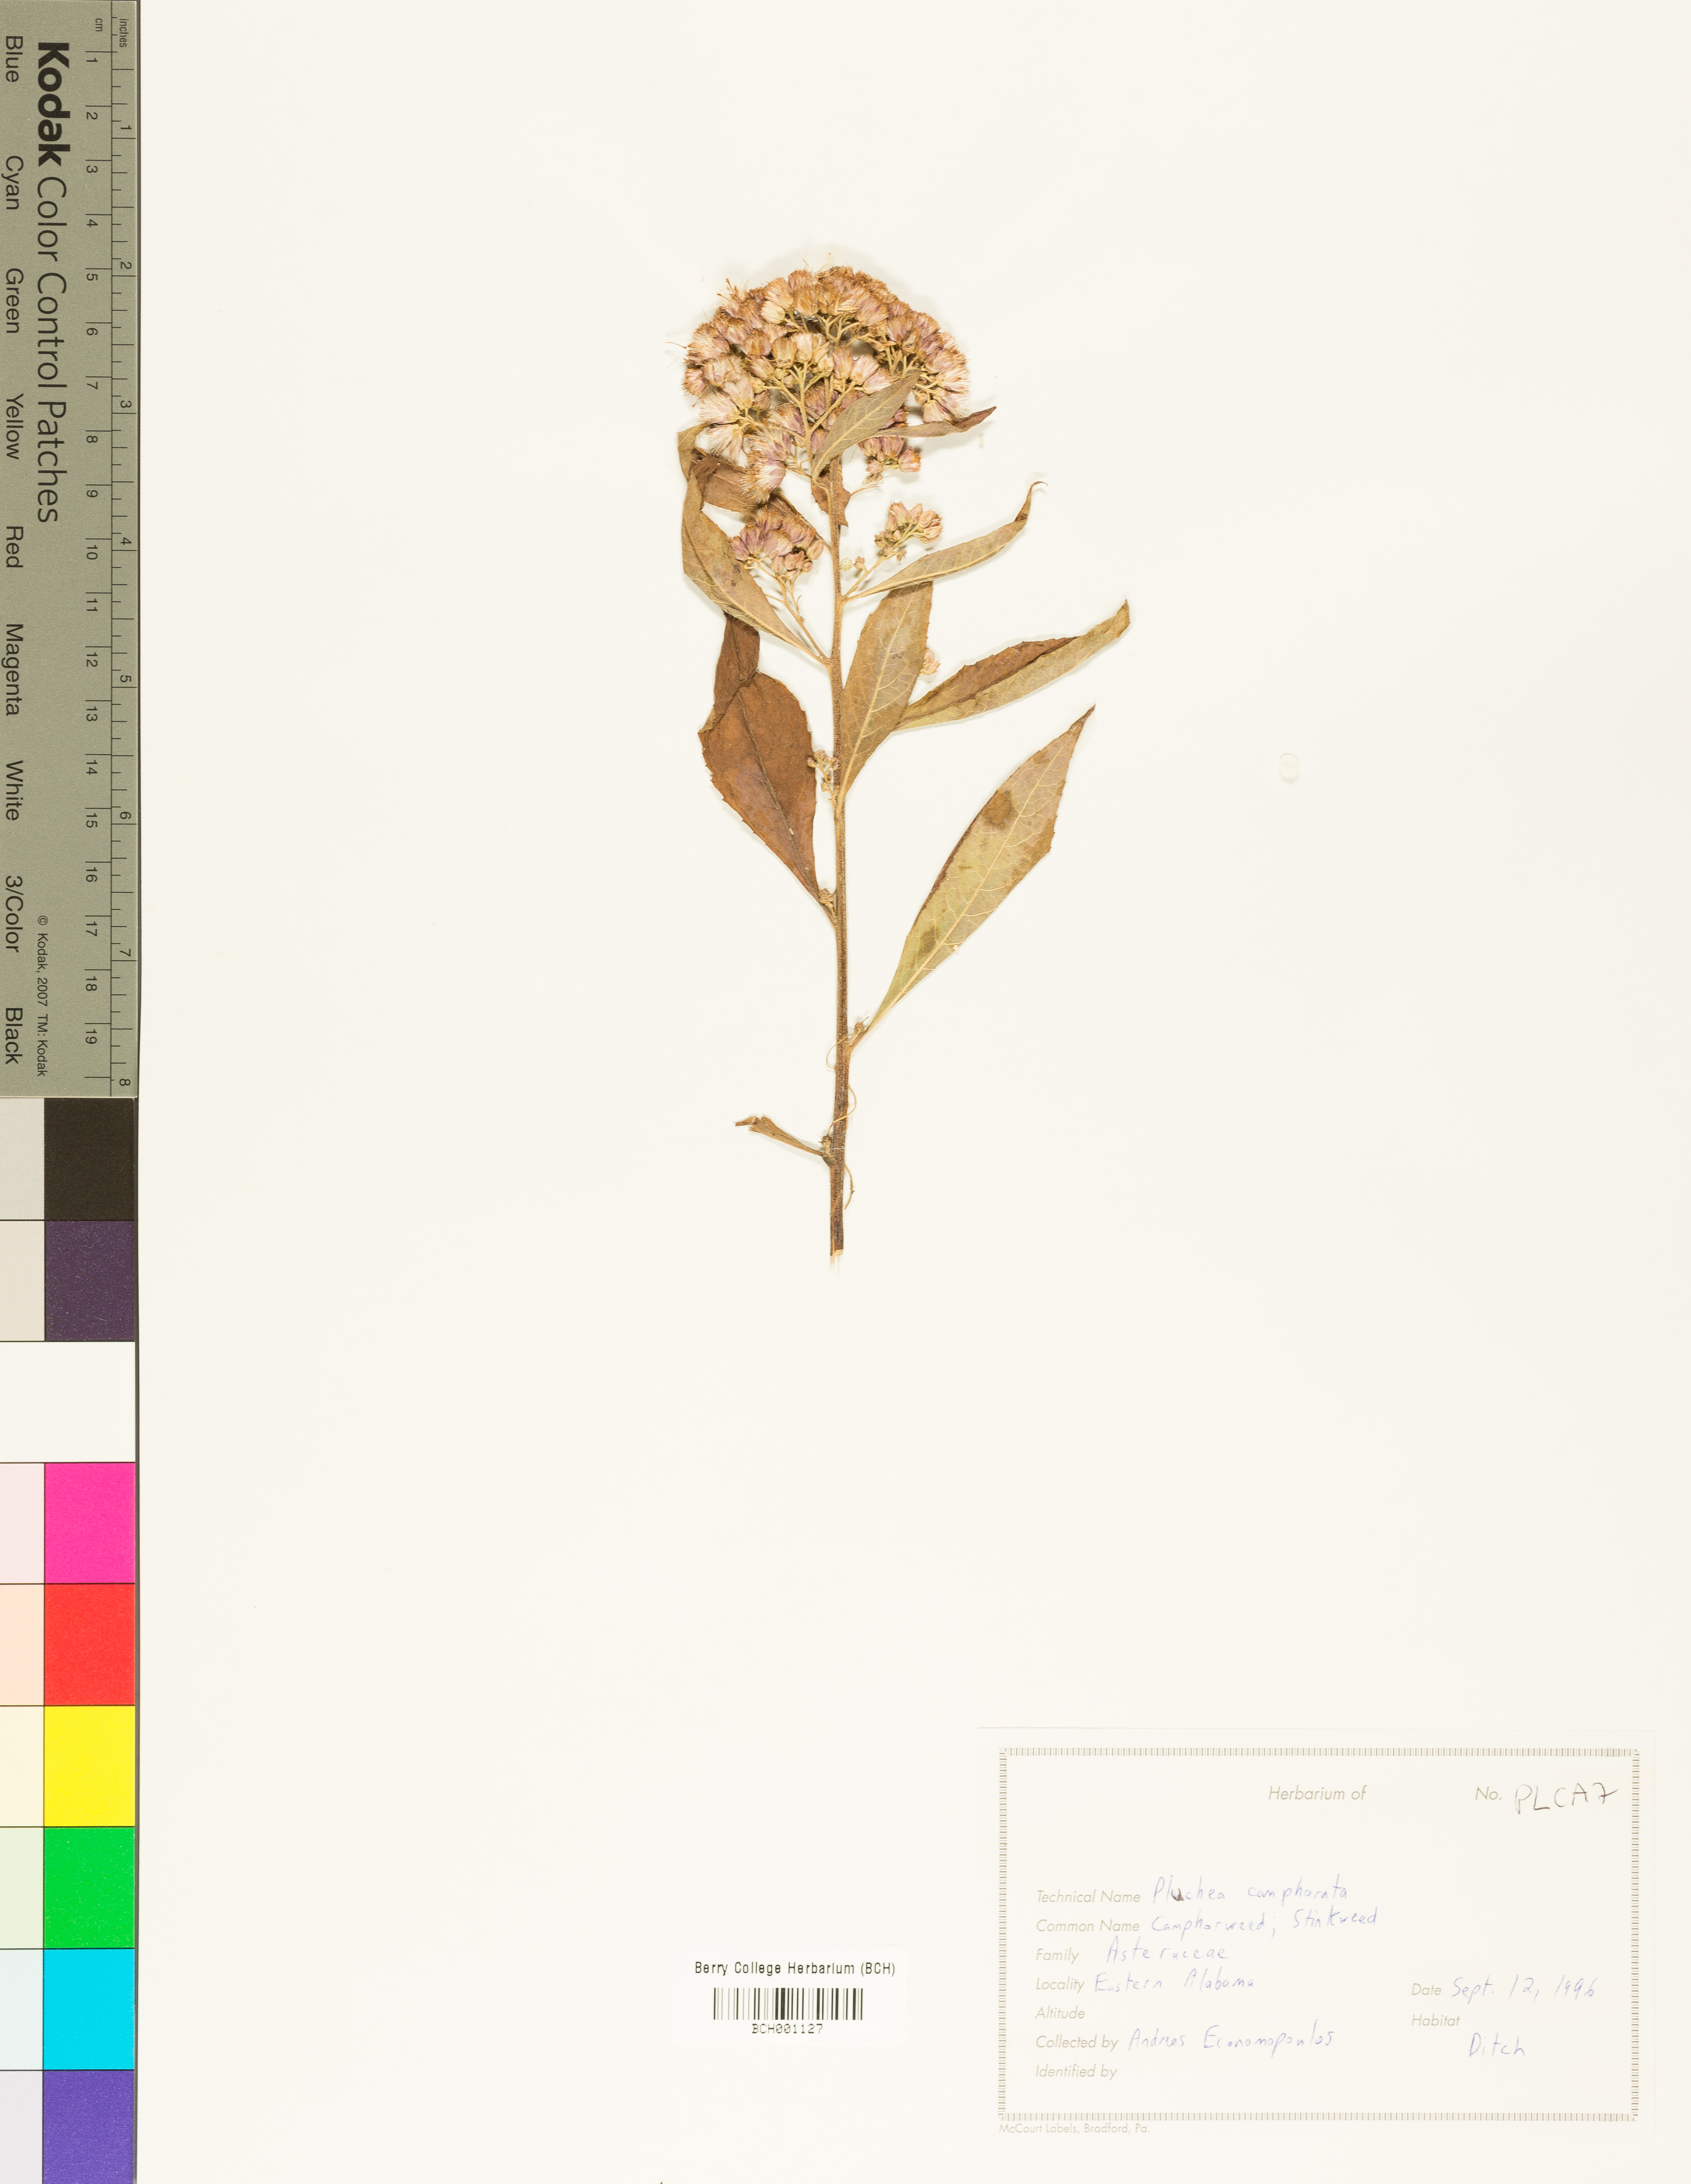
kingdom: Plantae
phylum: Tracheophyta
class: Magnoliopsida
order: Asterales
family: Asteraceae
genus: Pluchea
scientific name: Pluchea camphorata
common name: Camphor pluchea
